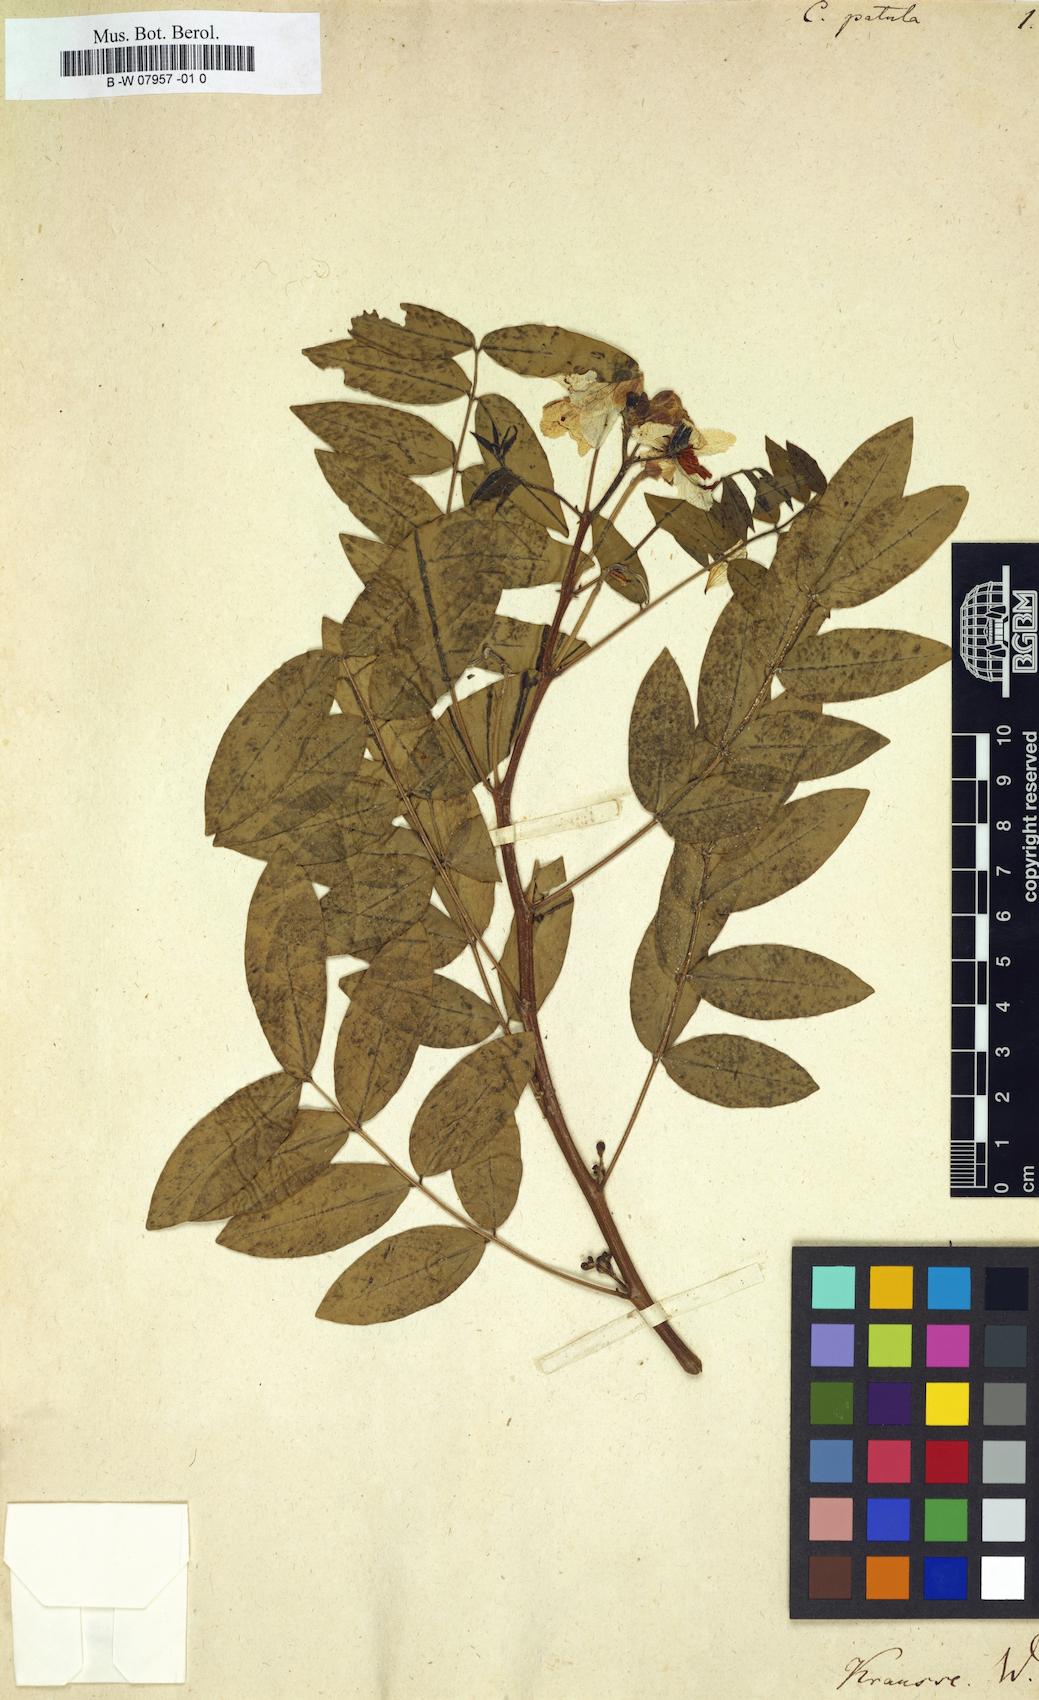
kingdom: Plantae
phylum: Tracheophyta
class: Magnoliopsida
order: Fabales
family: Fabaceae
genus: Senna
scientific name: Senna sophera
